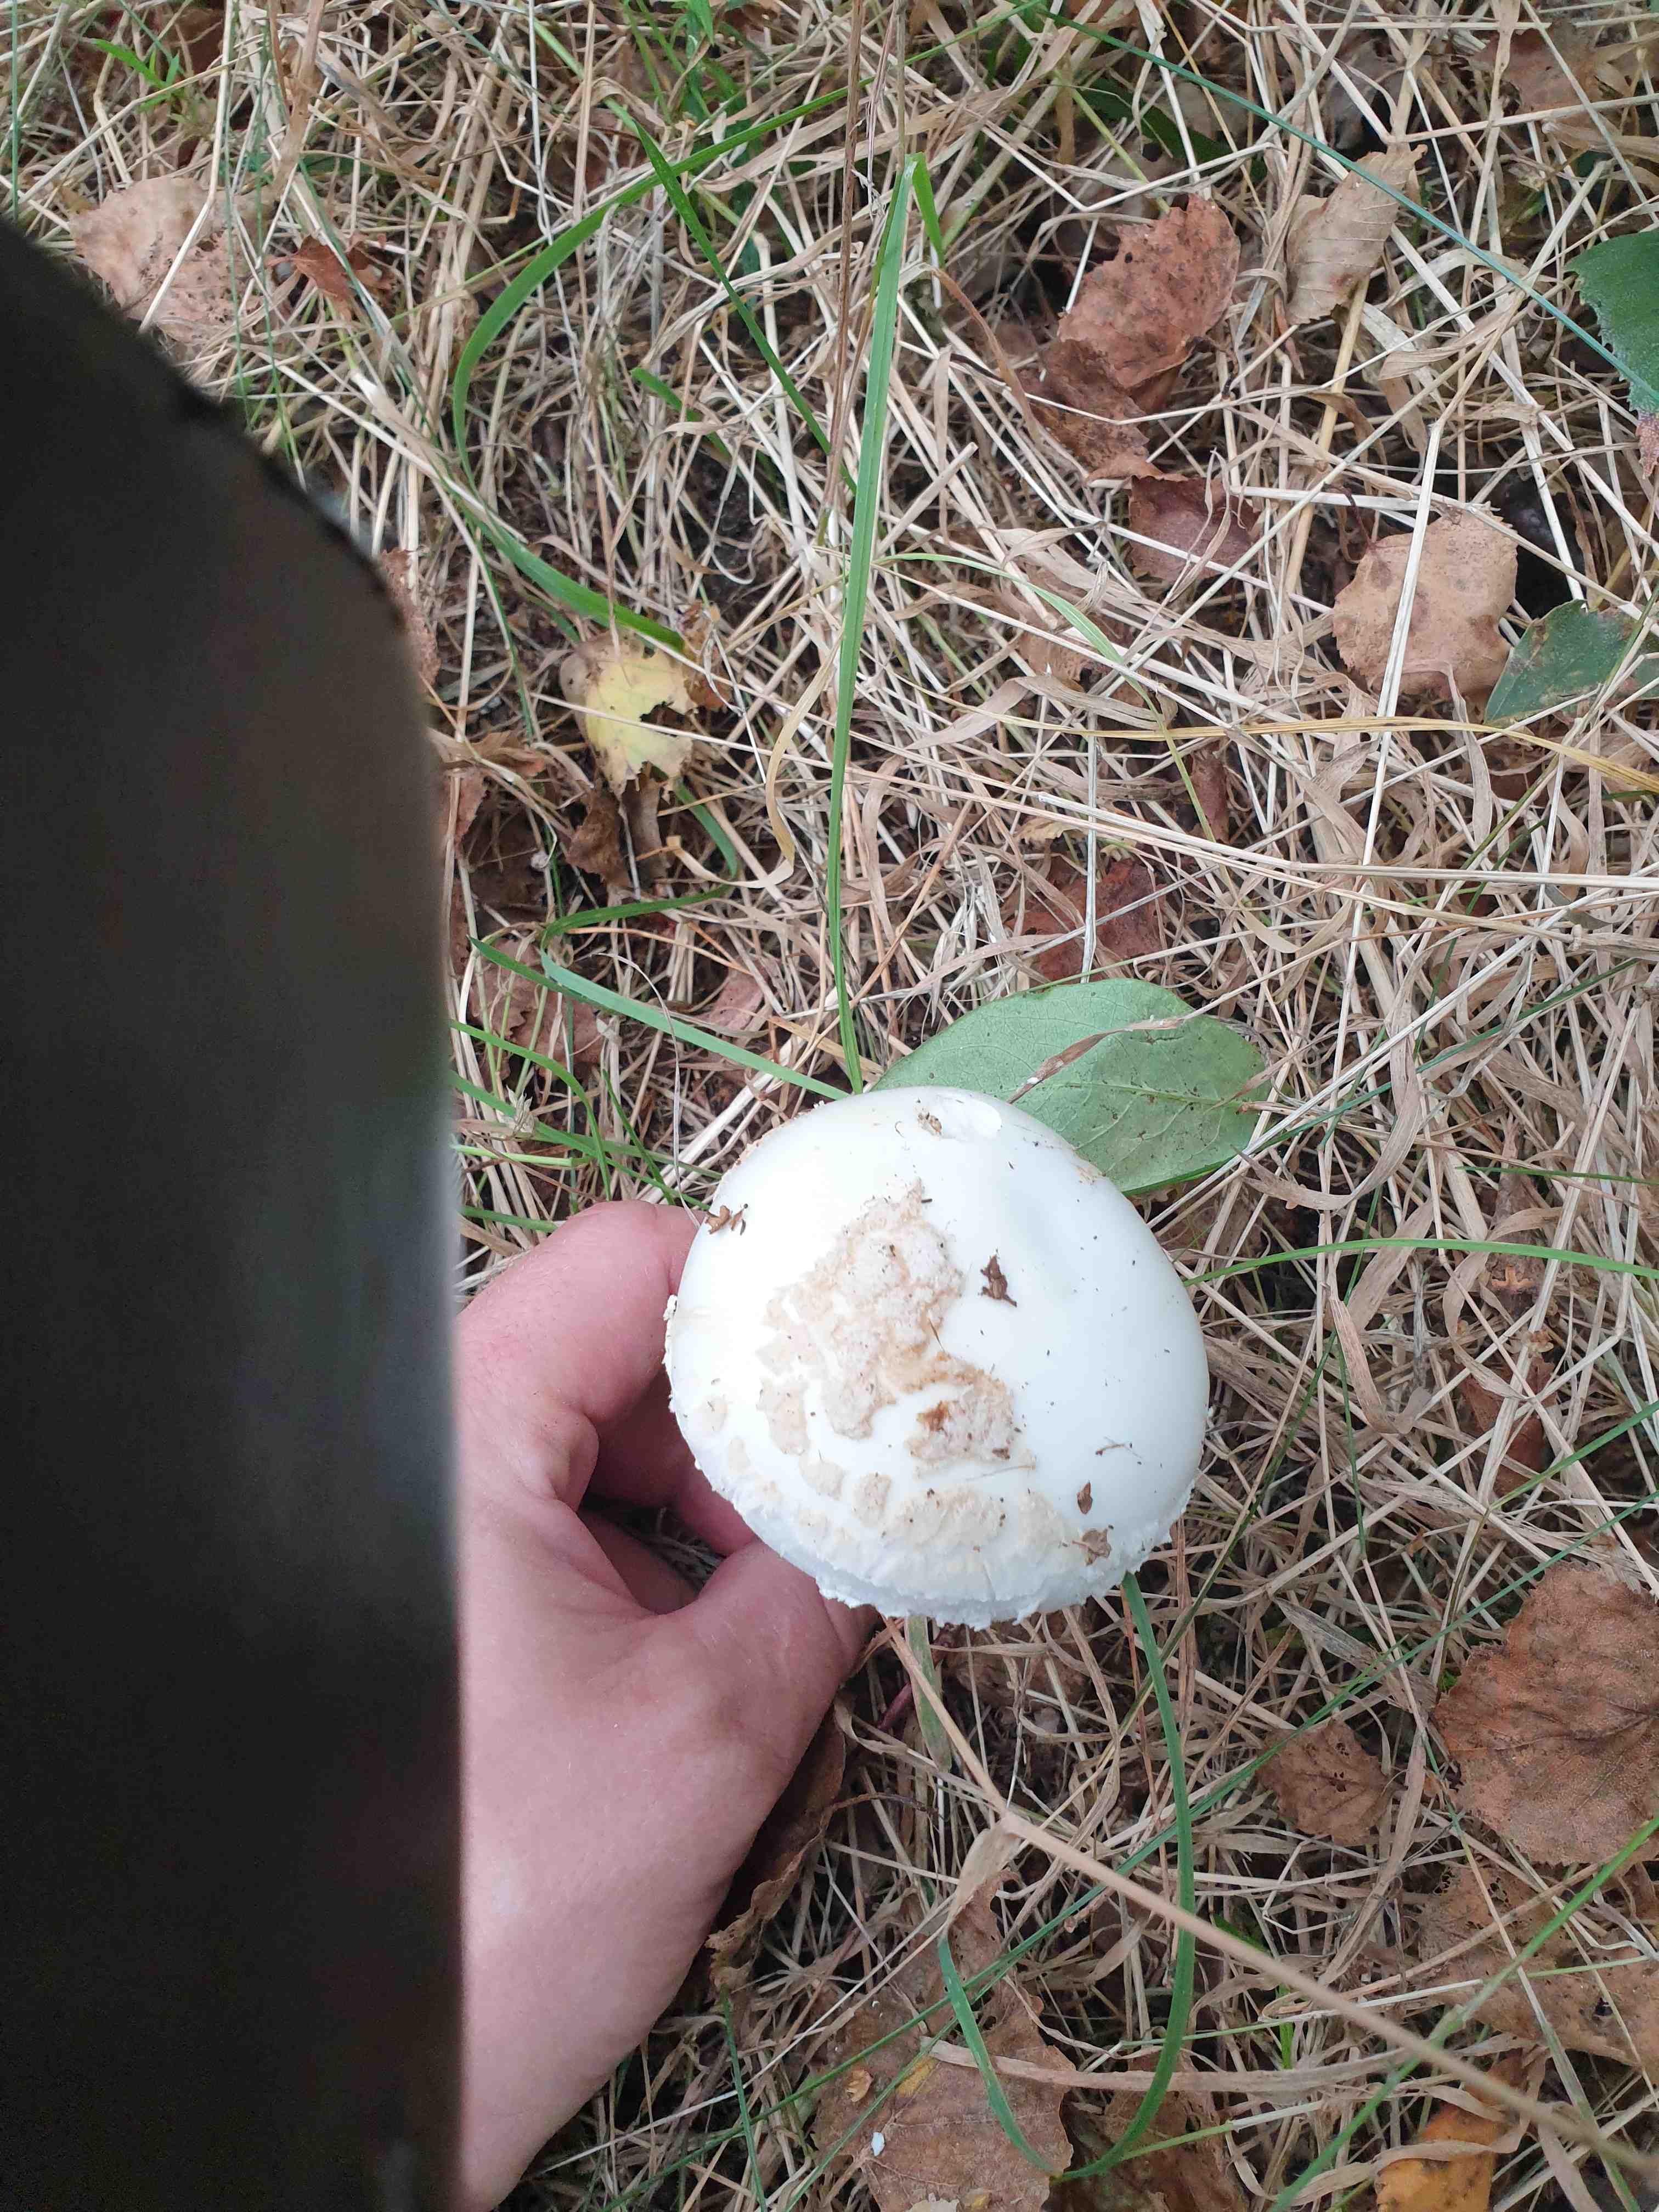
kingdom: Fungi
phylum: Basidiomycota
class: Agaricomycetes
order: Agaricales
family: Amanitaceae
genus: Amanita
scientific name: Amanita citrina
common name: kugleknoldet fluesvamp
